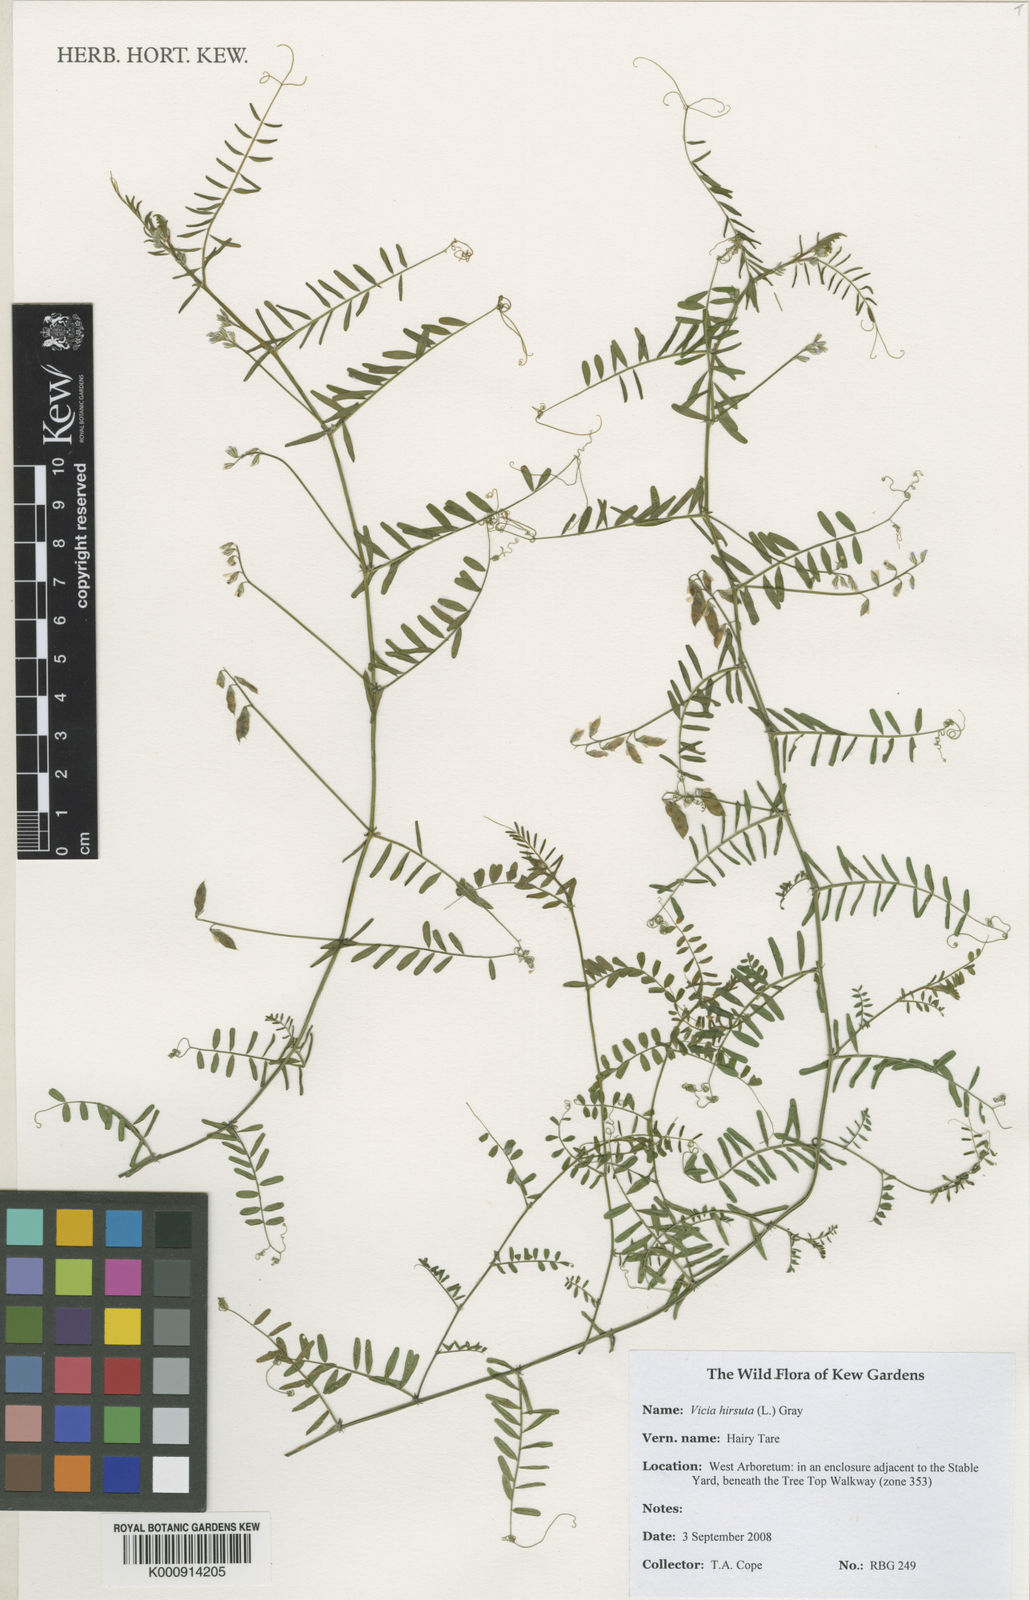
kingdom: Plantae
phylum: Tracheophyta
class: Magnoliopsida
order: Fabales
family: Fabaceae
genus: Vicia
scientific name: Vicia hirsuta
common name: Tiny vetch
